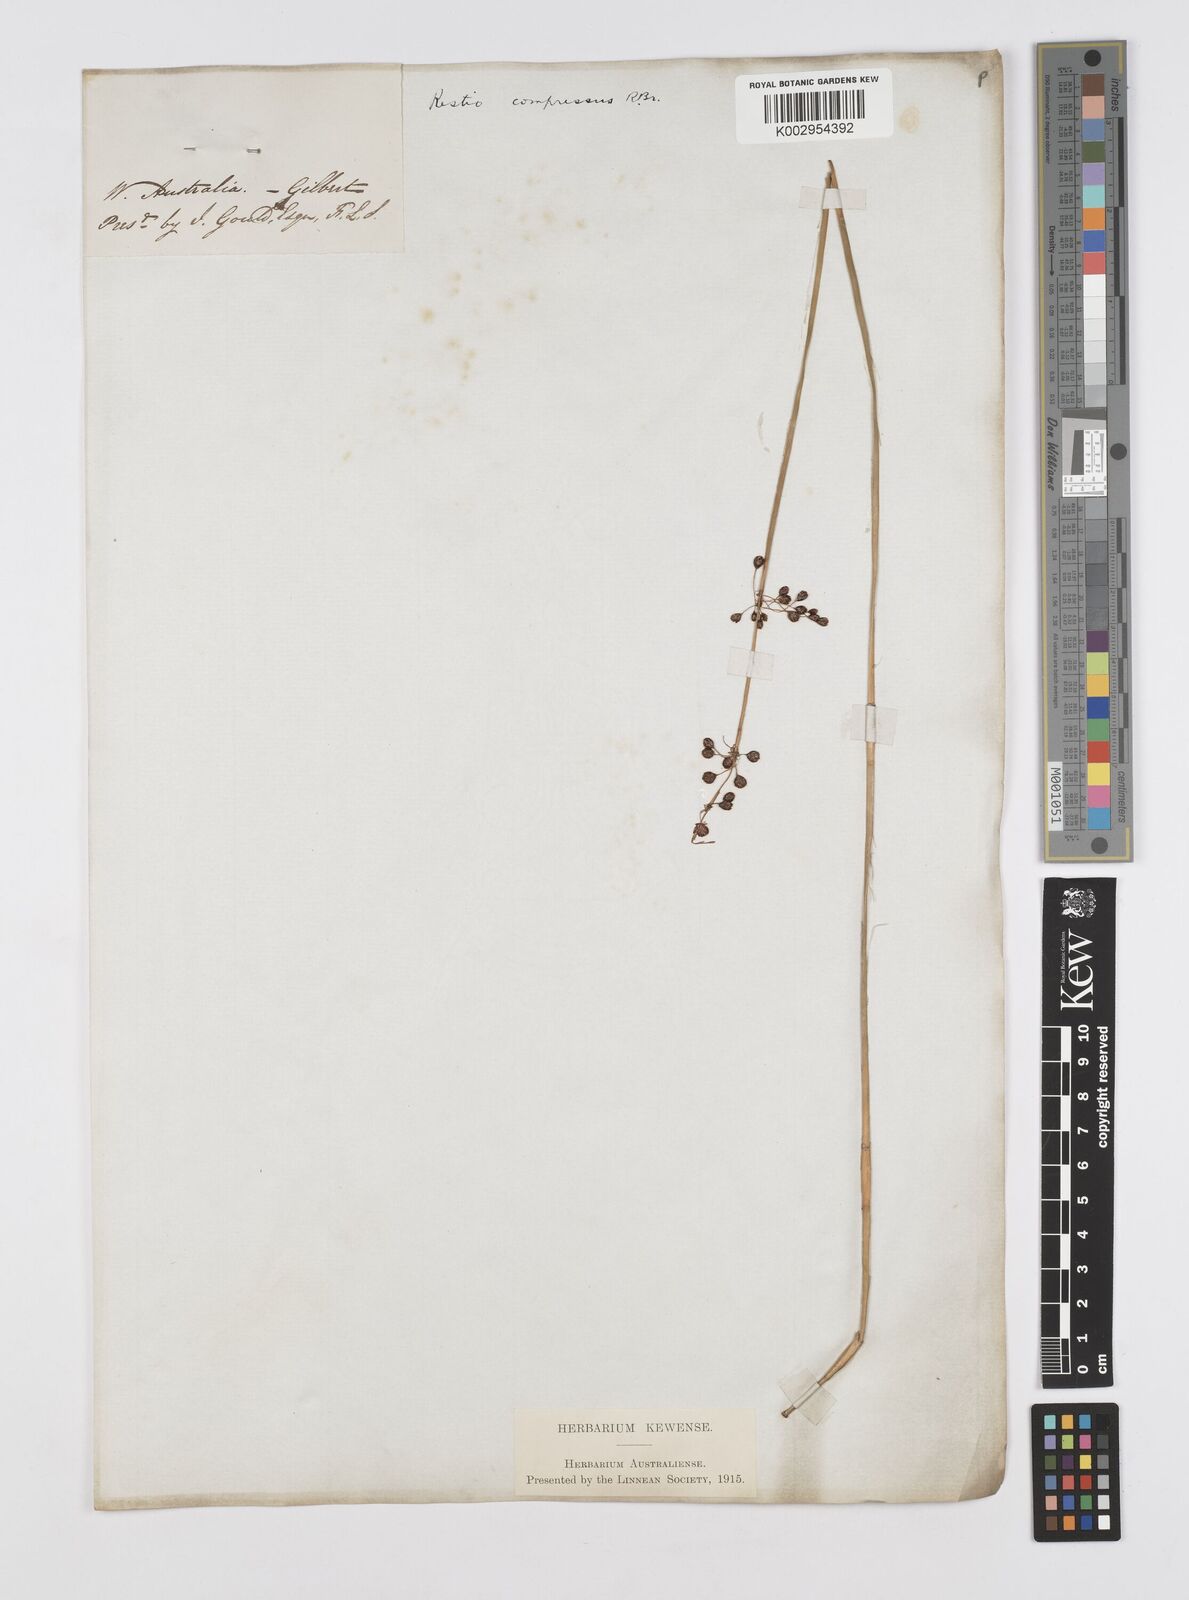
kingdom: Plantae
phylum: Tracheophyta
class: Liliopsida
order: Poales
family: Restionaceae
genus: Platychorda
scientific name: Platychorda applanata
